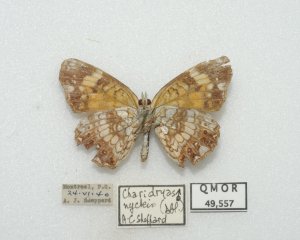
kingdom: Animalia
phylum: Arthropoda
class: Insecta
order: Lepidoptera
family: Nymphalidae
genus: Chlosyne
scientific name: Chlosyne nycteis
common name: Silvery Checkerspot
